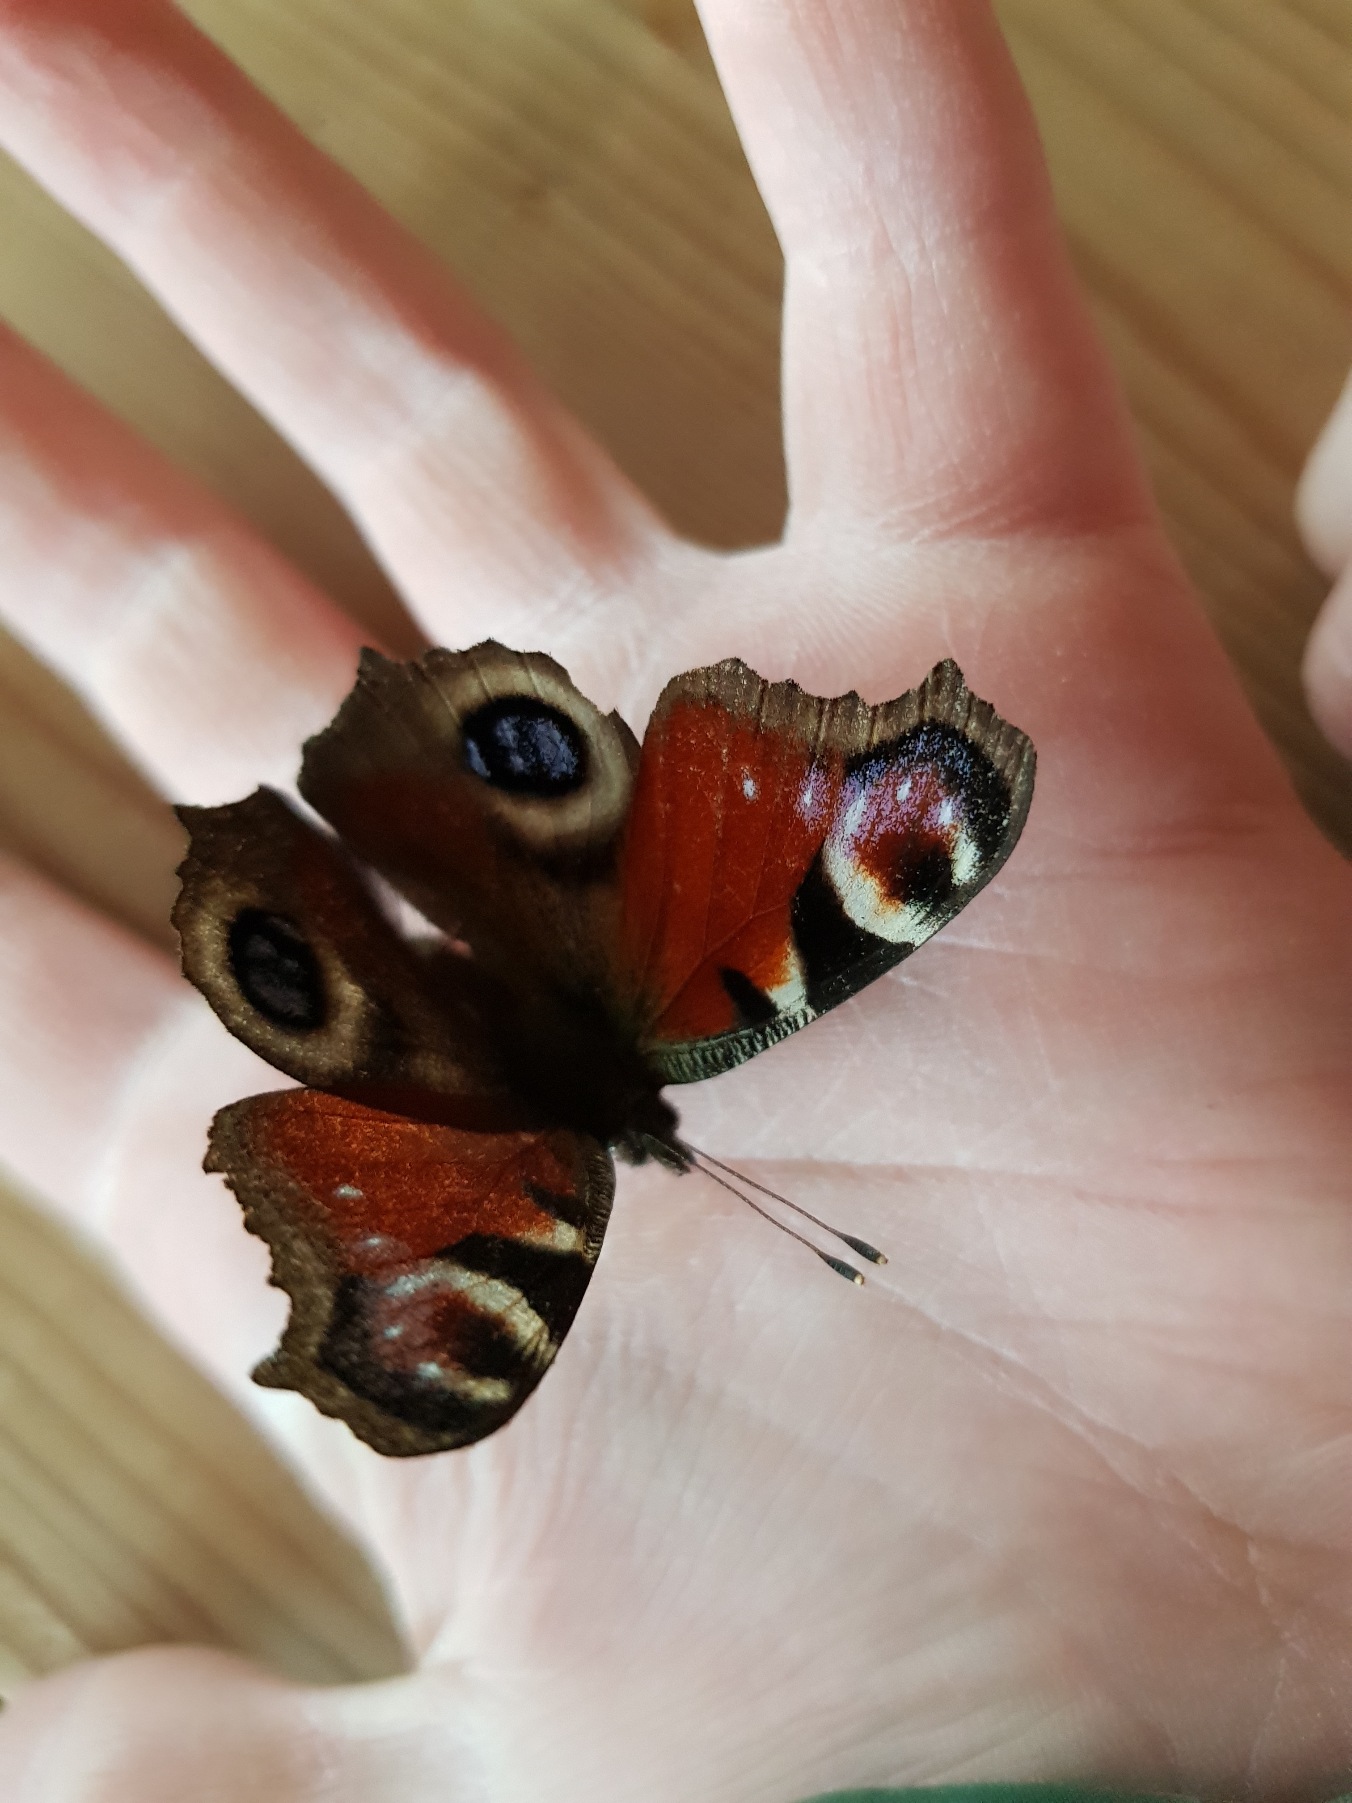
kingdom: Animalia
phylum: Arthropoda
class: Insecta
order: Lepidoptera
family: Nymphalidae
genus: Aglais
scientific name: Aglais io
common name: Dagpåfugleøje
